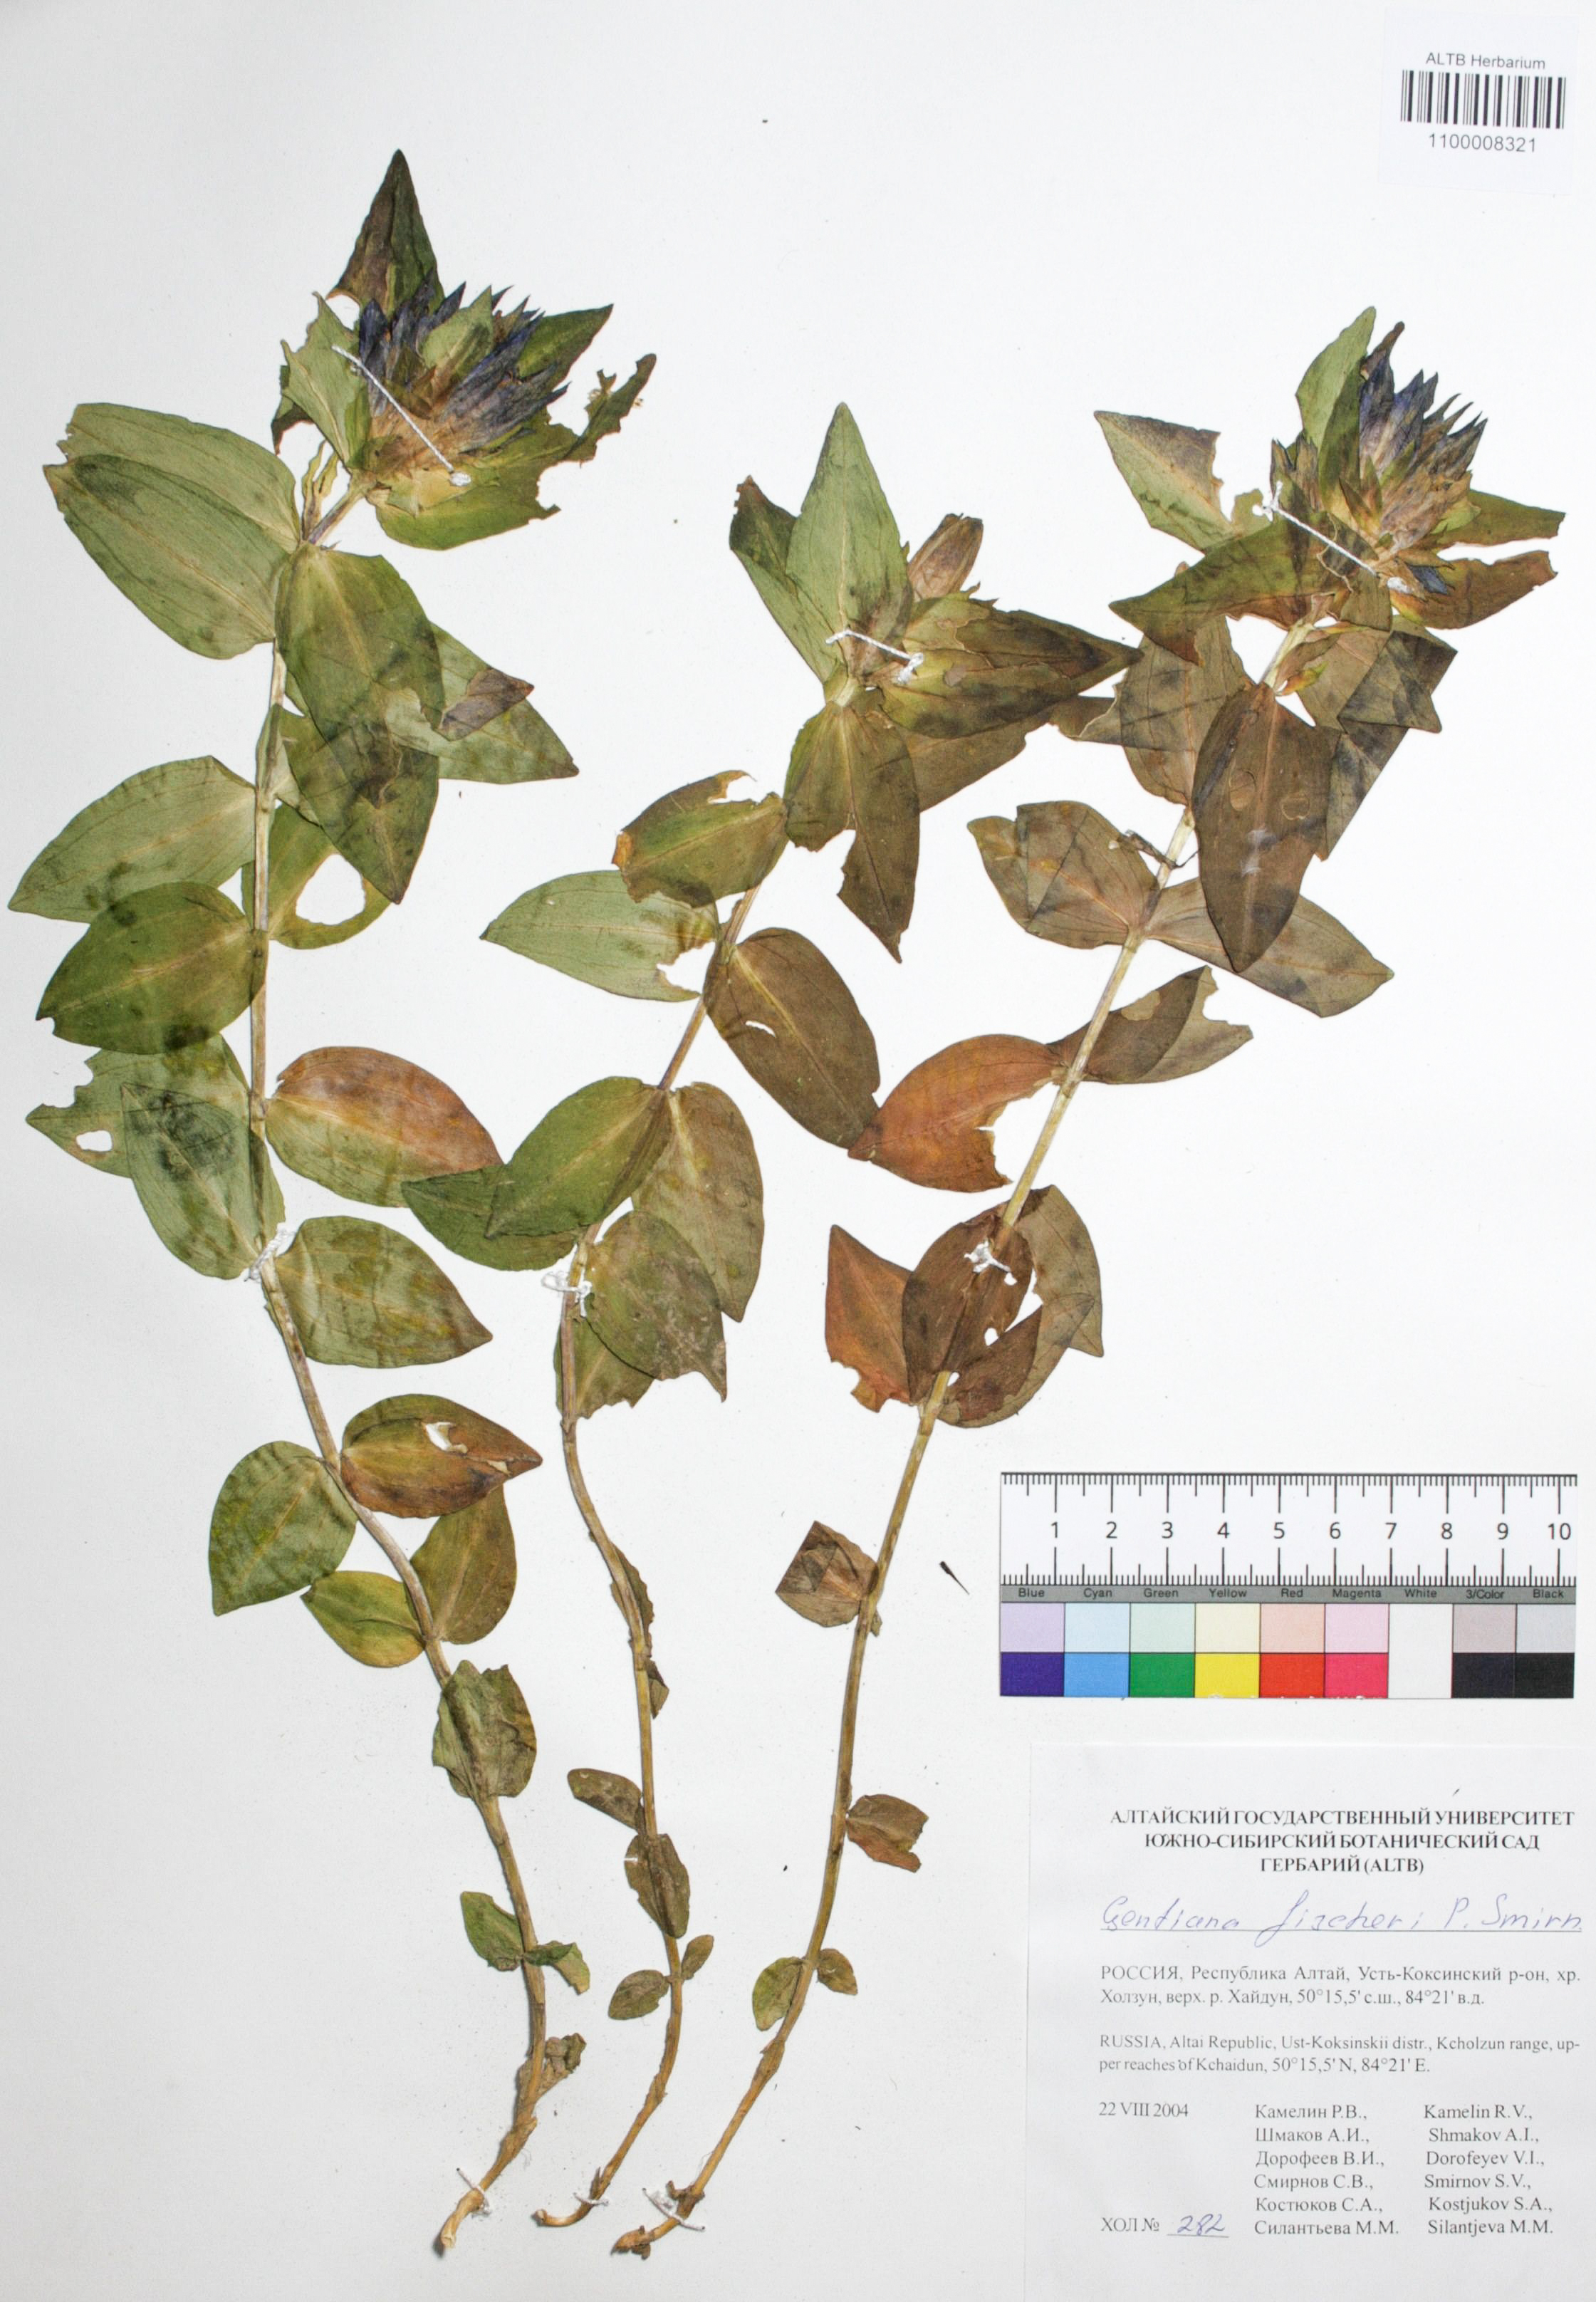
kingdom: Plantae
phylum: Tracheophyta
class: Magnoliopsida
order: Gentianales
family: Gentianaceae
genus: Gentiana
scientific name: Gentiana dschungarica
